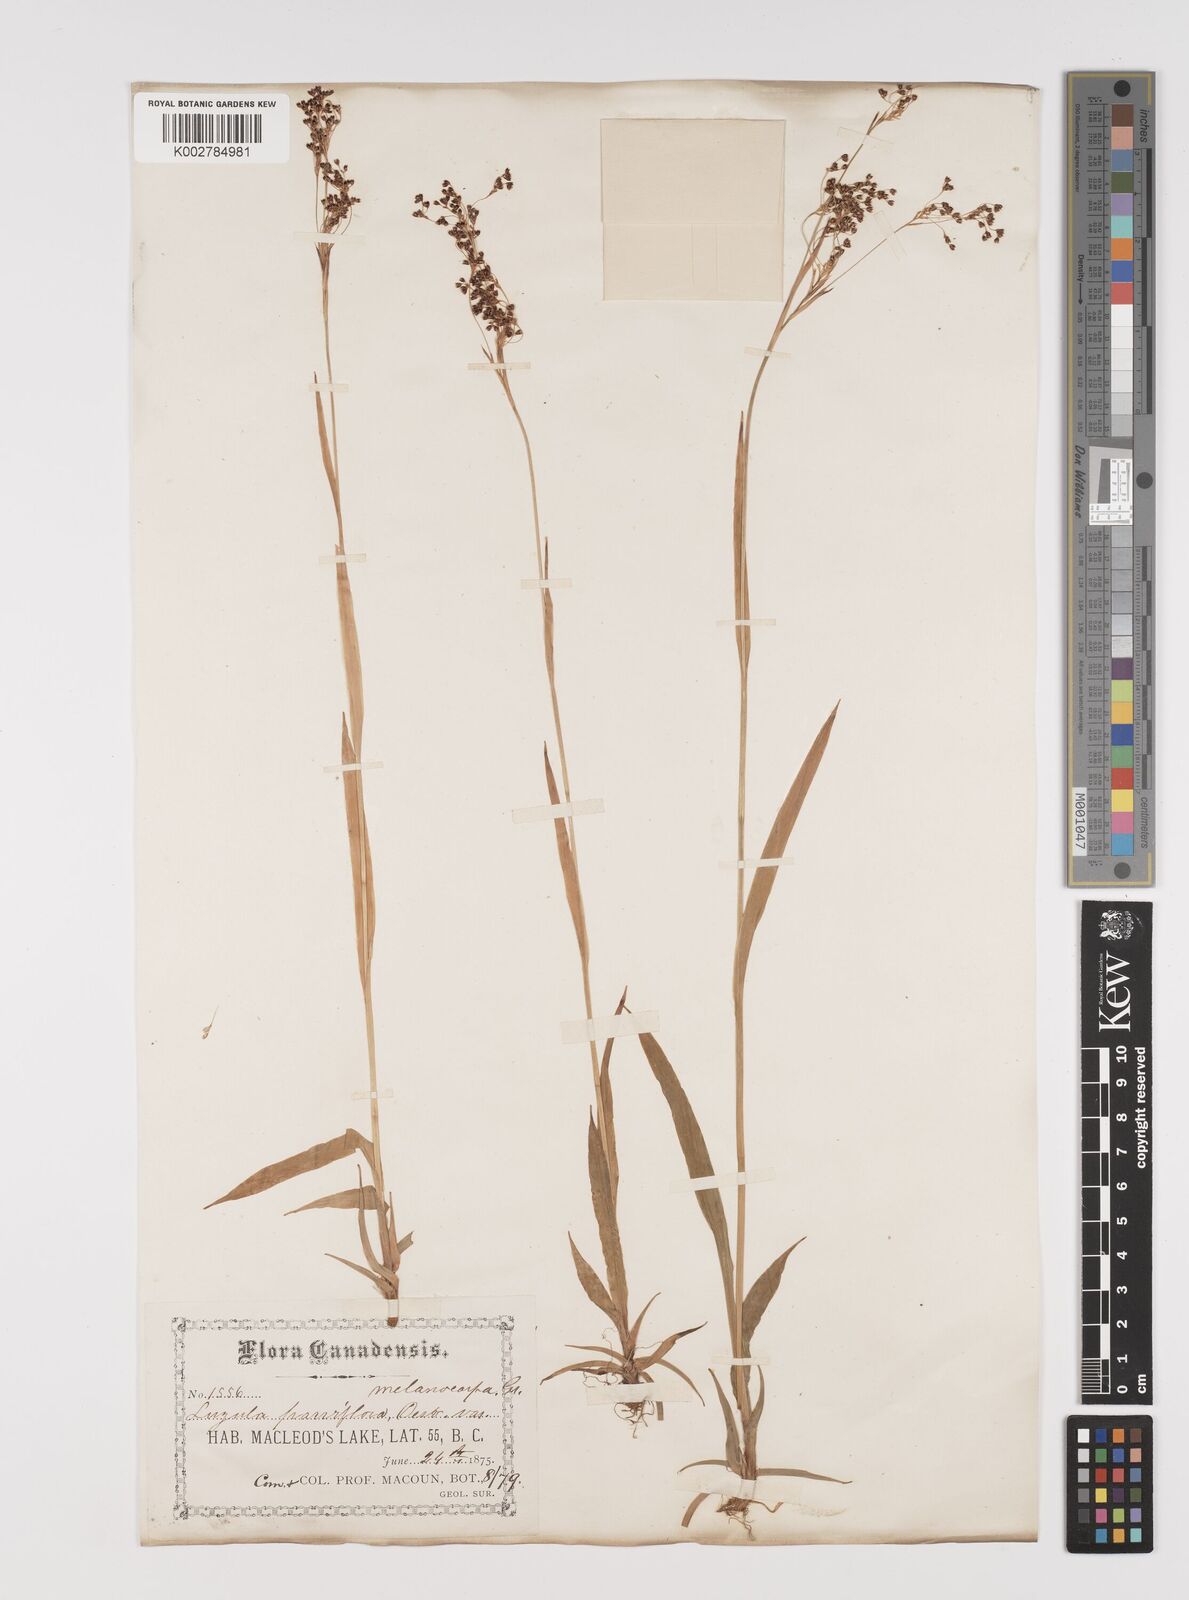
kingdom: Plantae
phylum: Tracheophyta
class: Liliopsida
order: Poales
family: Juncaceae
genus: Luzula
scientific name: Luzula parviflora
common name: Millet woodrush
